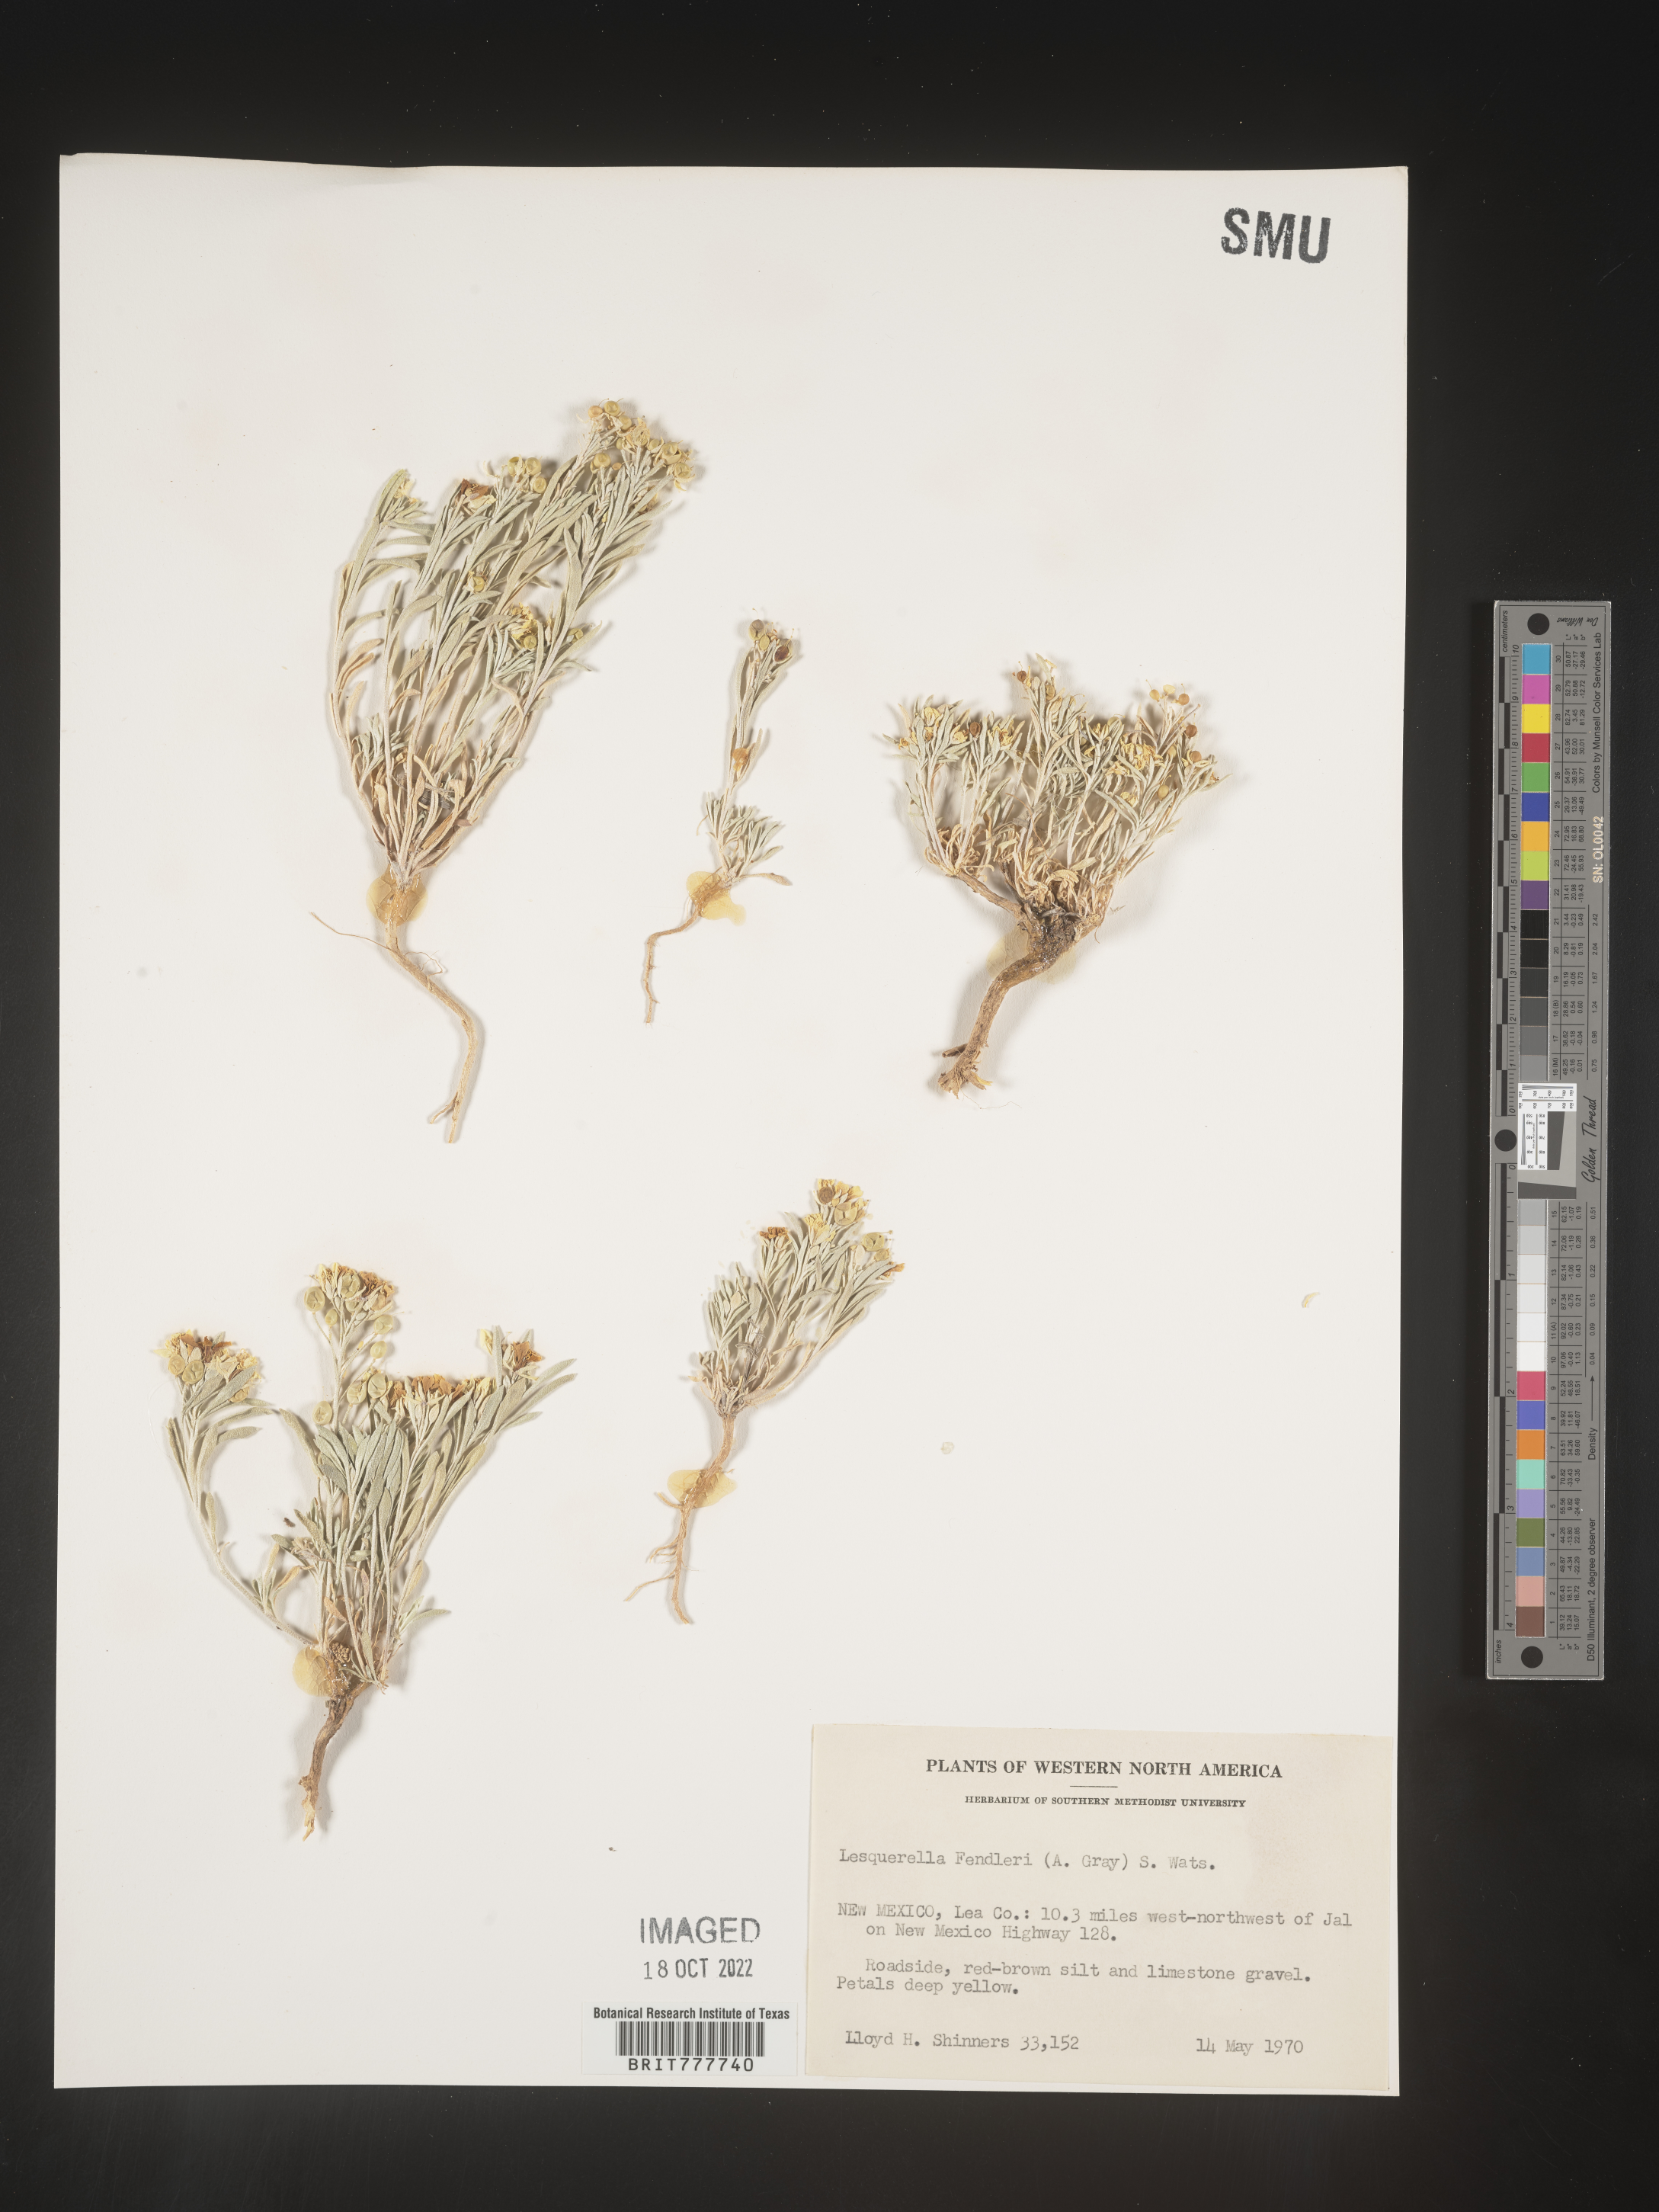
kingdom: Plantae
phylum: Tracheophyta
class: Magnoliopsida
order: Brassicales
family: Brassicaceae
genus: Physaria
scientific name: Physaria fendleri
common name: Fendler's bladderpod
